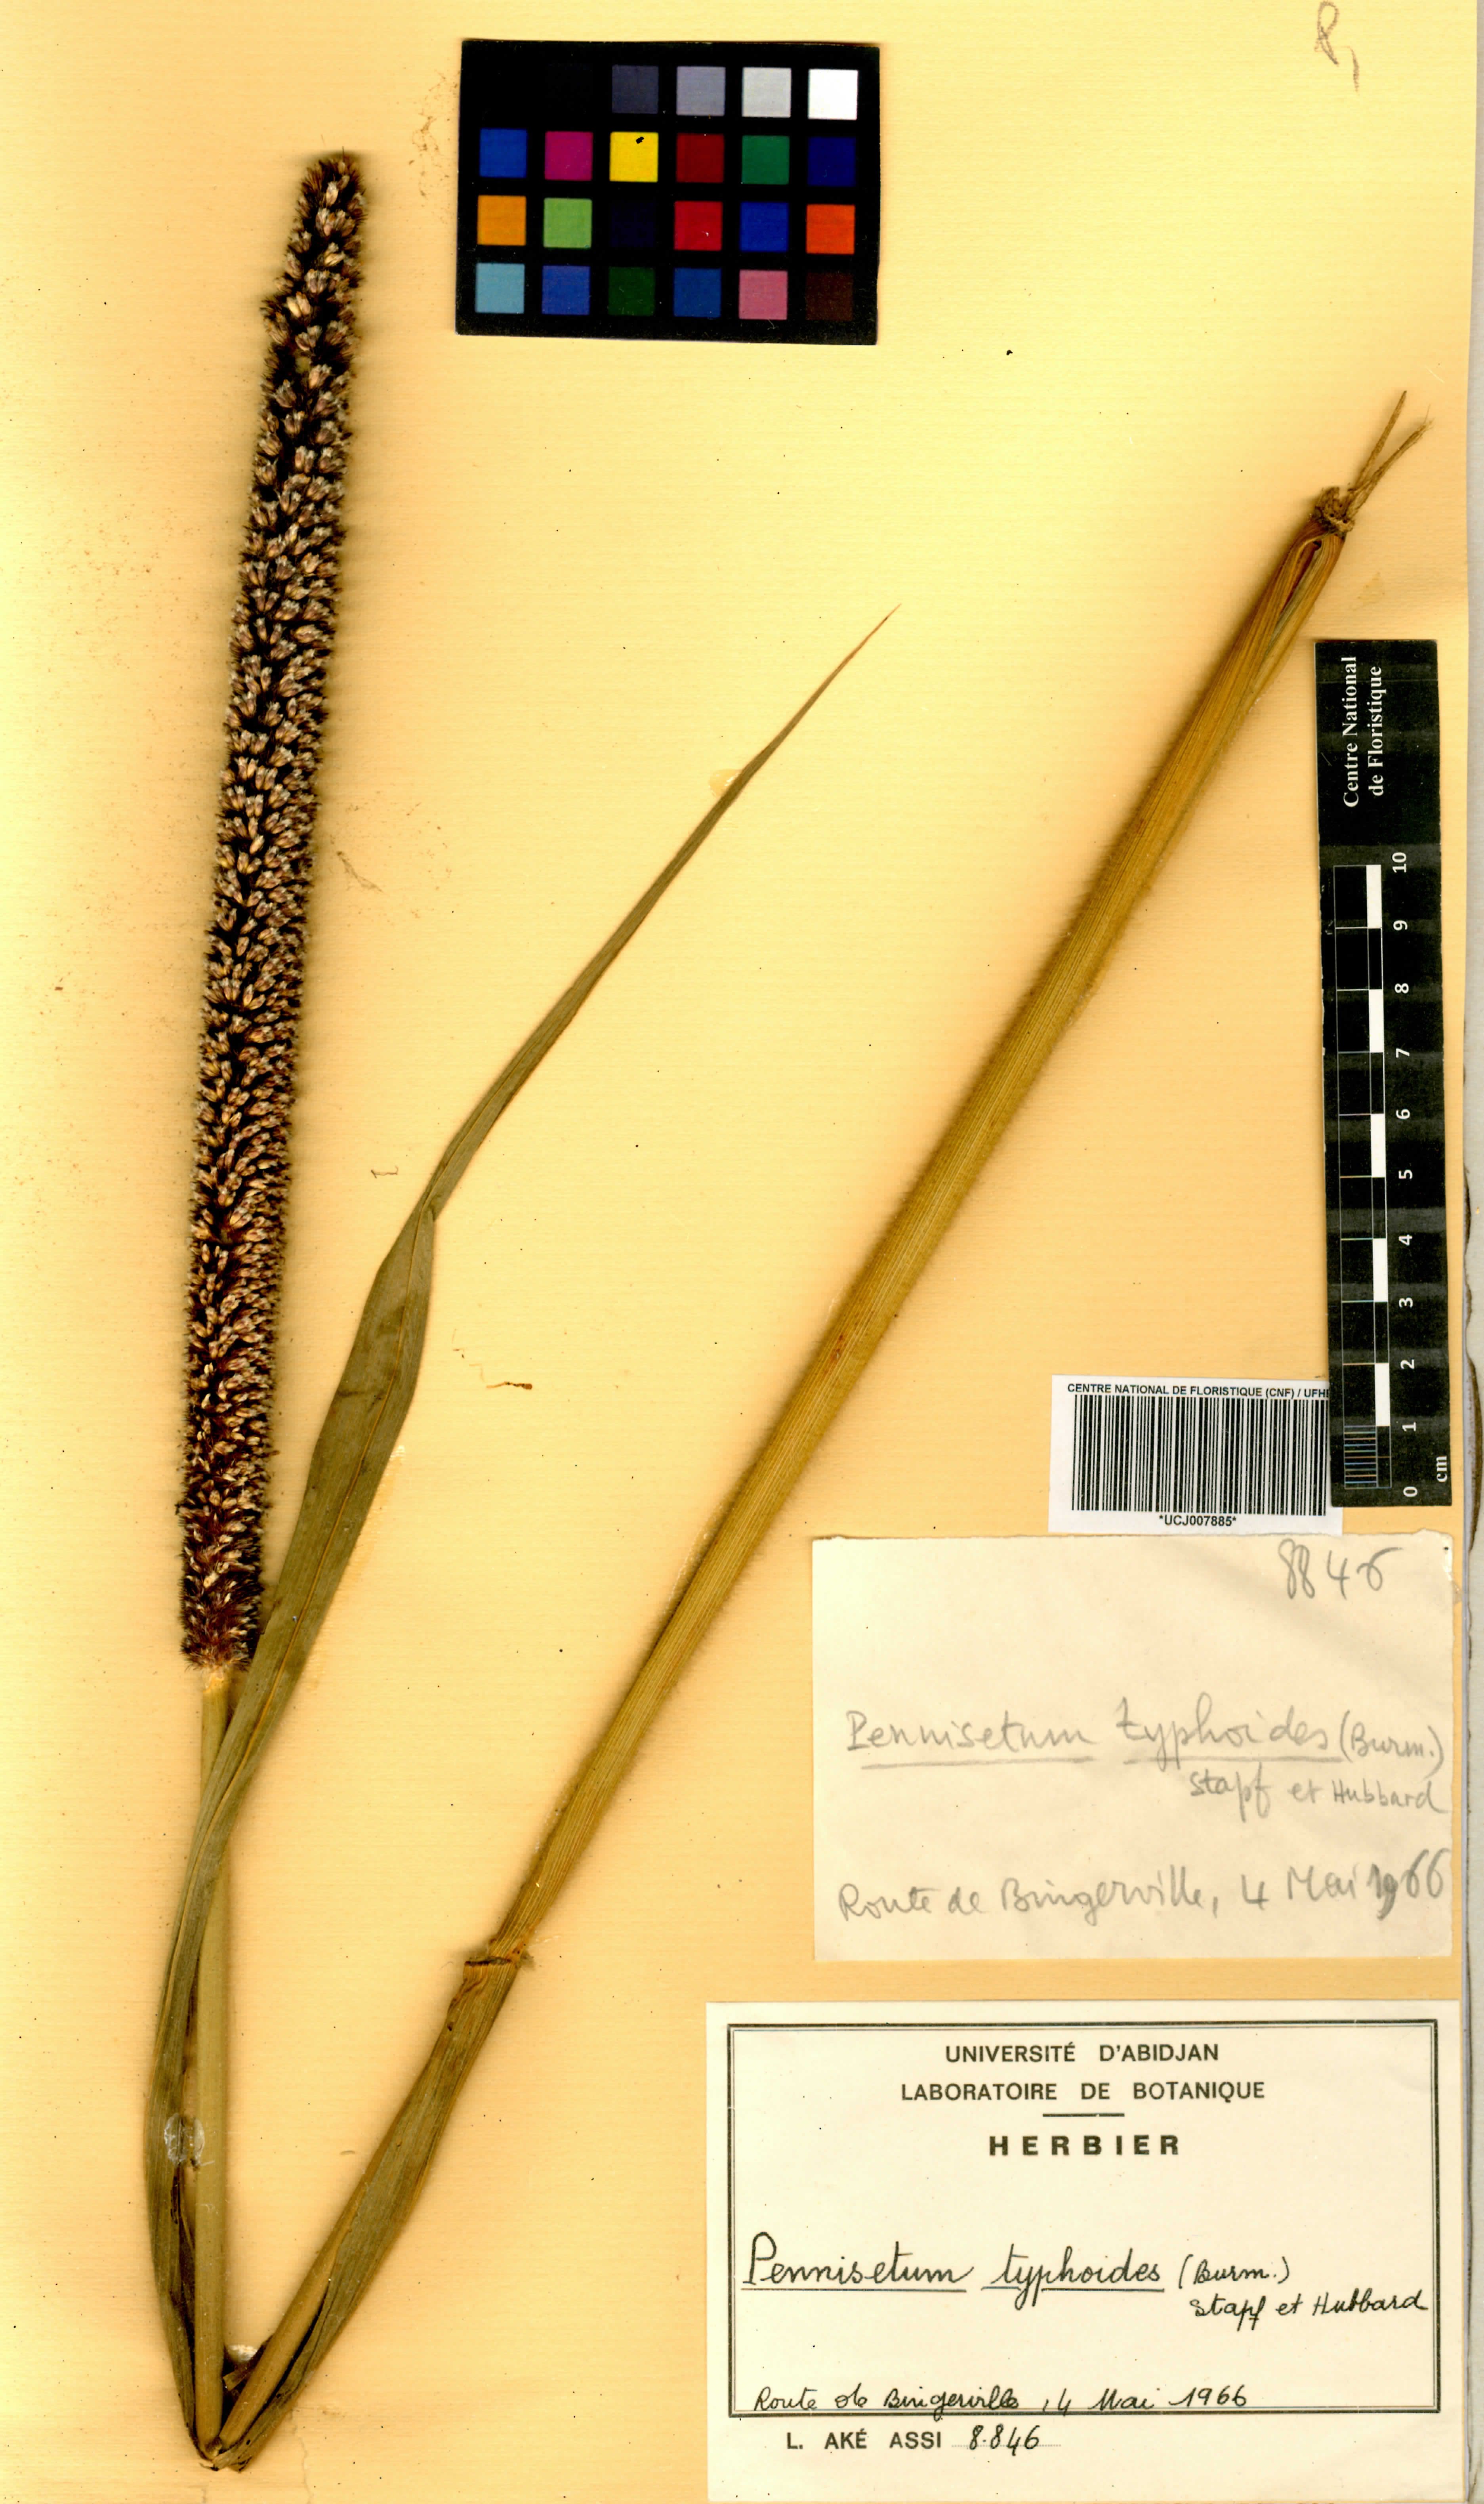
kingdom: Plantae
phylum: Tracheophyta
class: Liliopsida
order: Poales
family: Poaceae
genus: Cenchrus
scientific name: Cenchrus americanus
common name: Pearl millet
